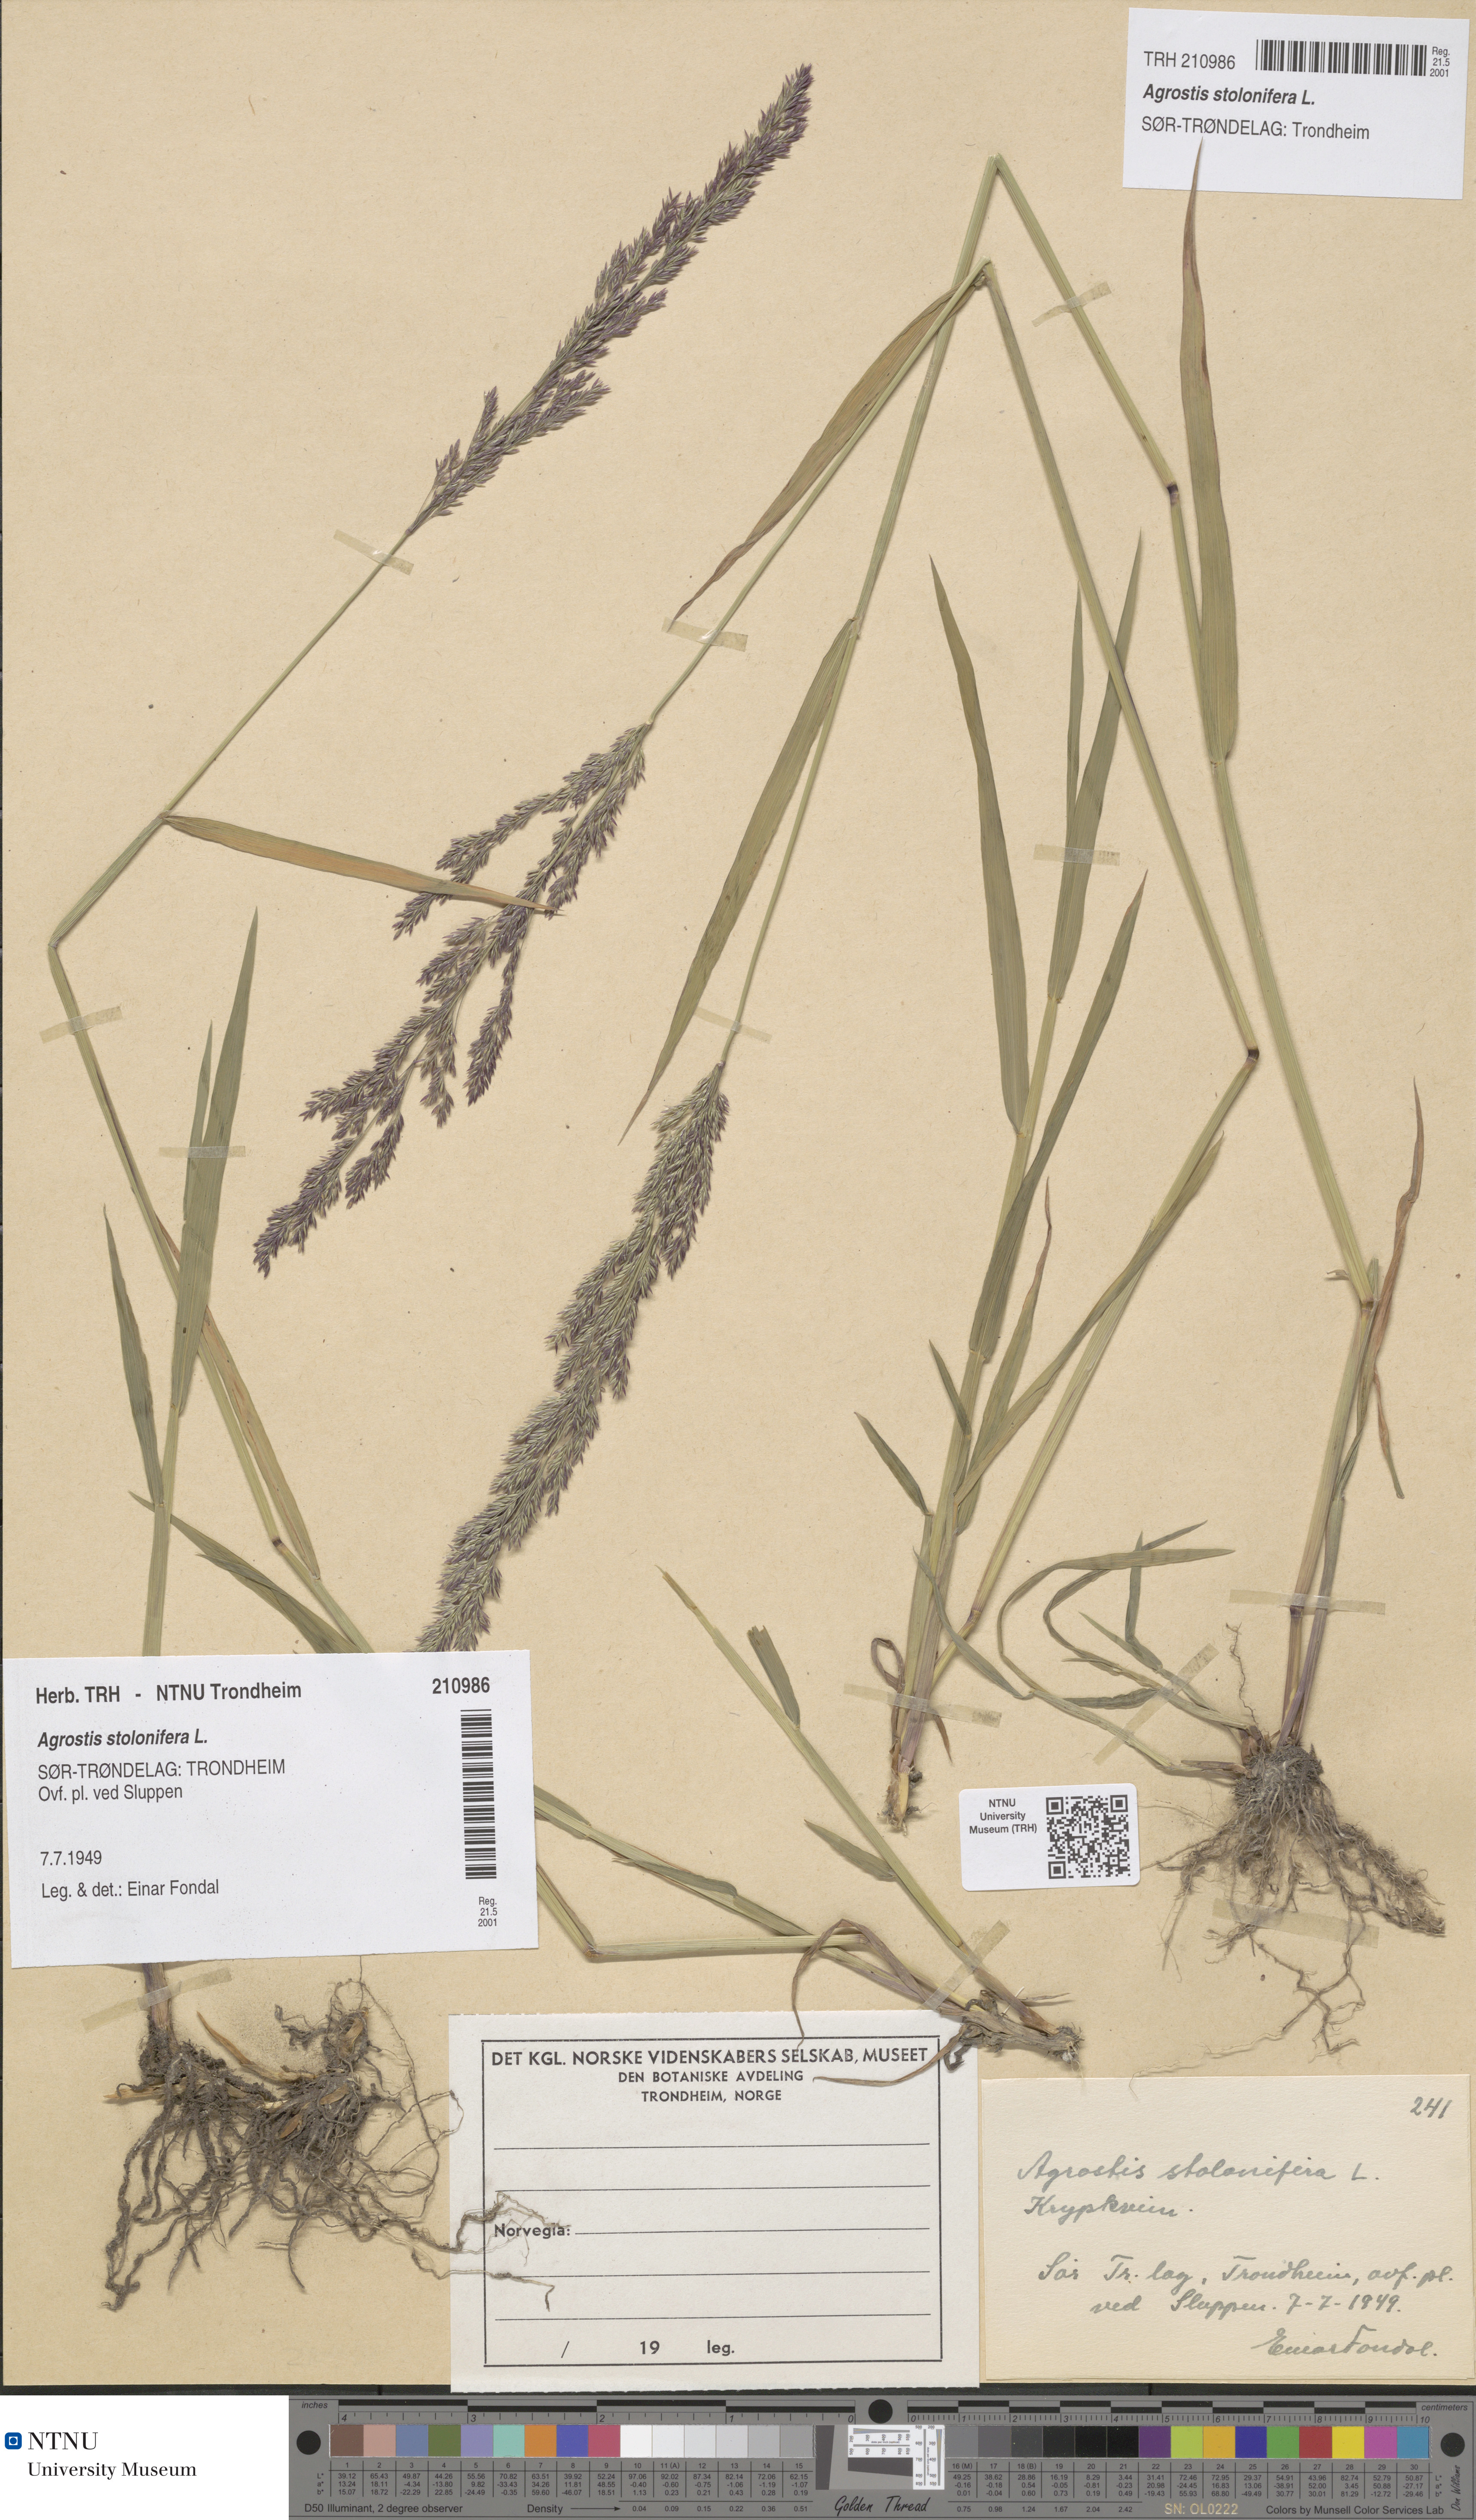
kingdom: Plantae
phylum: Tracheophyta
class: Liliopsida
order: Poales
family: Poaceae
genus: Agrostis
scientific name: Agrostis stolonifera
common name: Creeping bentgrass
